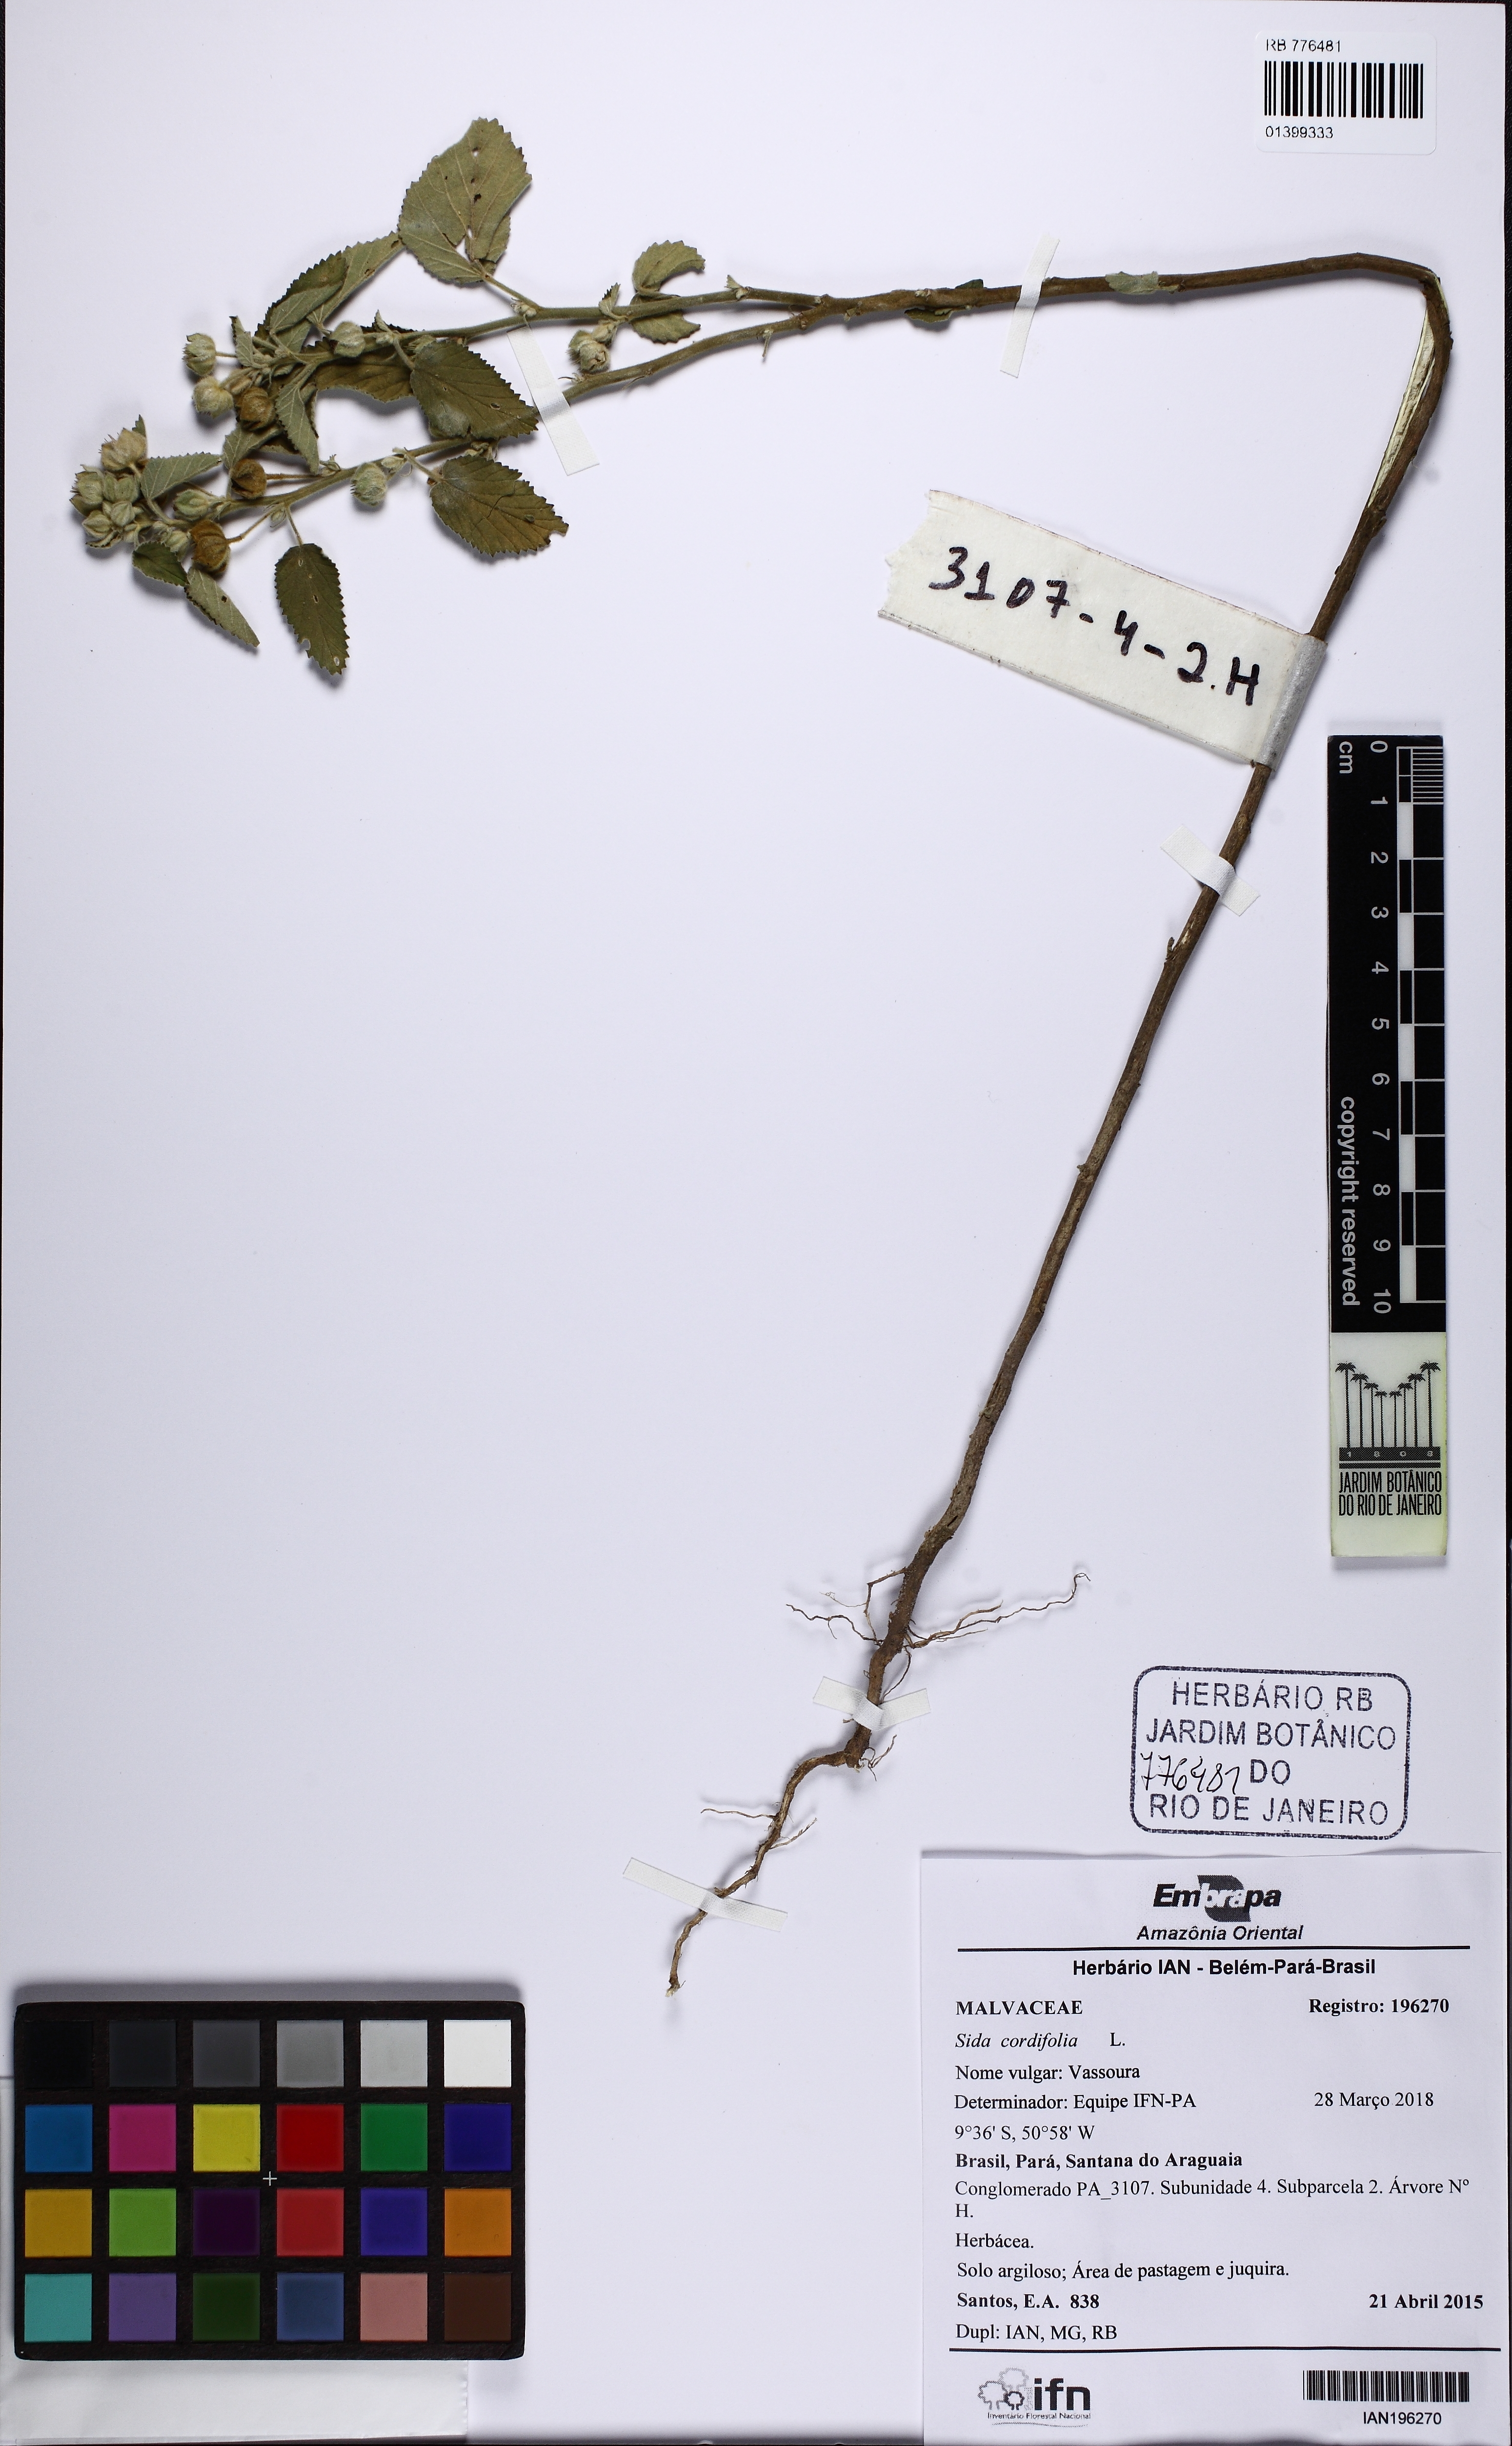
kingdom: Plantae
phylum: Tracheophyta
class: Magnoliopsida
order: Malvales
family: Malvaceae
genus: Sida
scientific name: Sida cordifolia
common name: Ilima
